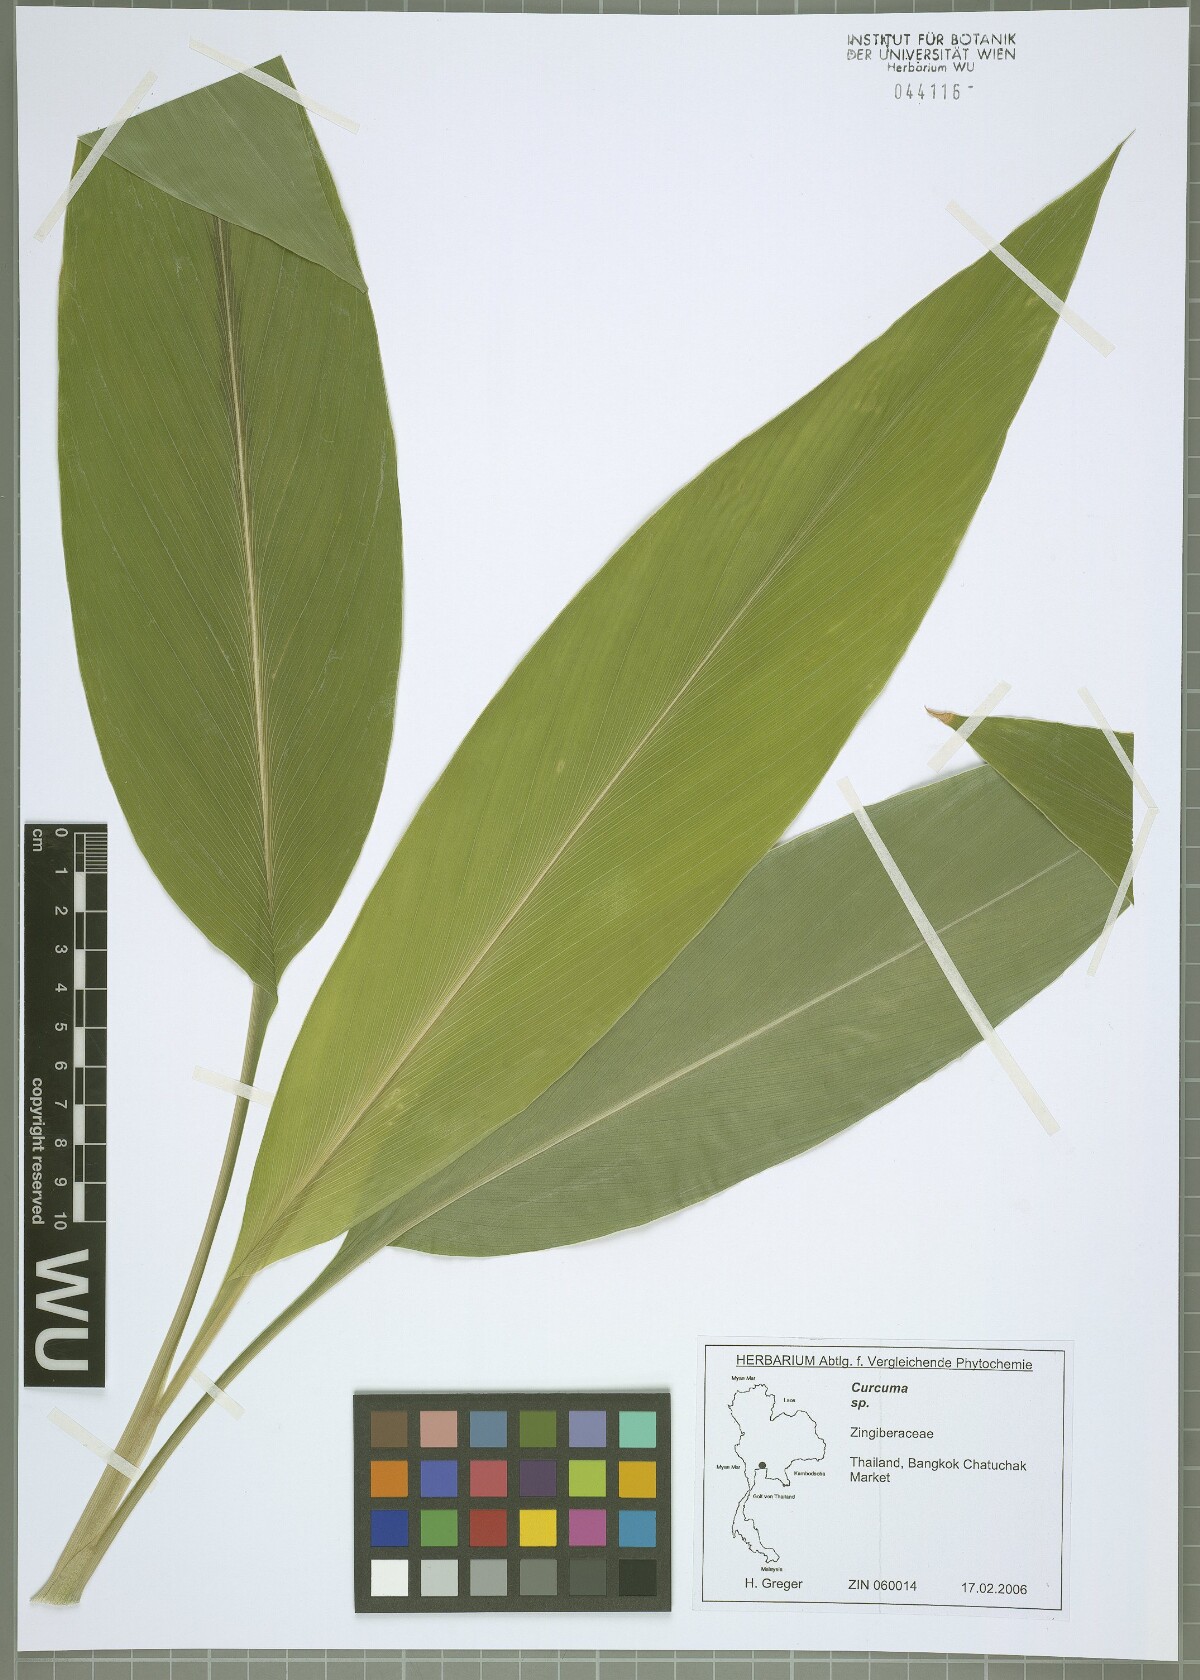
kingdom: Plantae
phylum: Tracheophyta
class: Liliopsida
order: Zingiberales
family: Zingiberaceae
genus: Curcuma
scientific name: Curcuma
